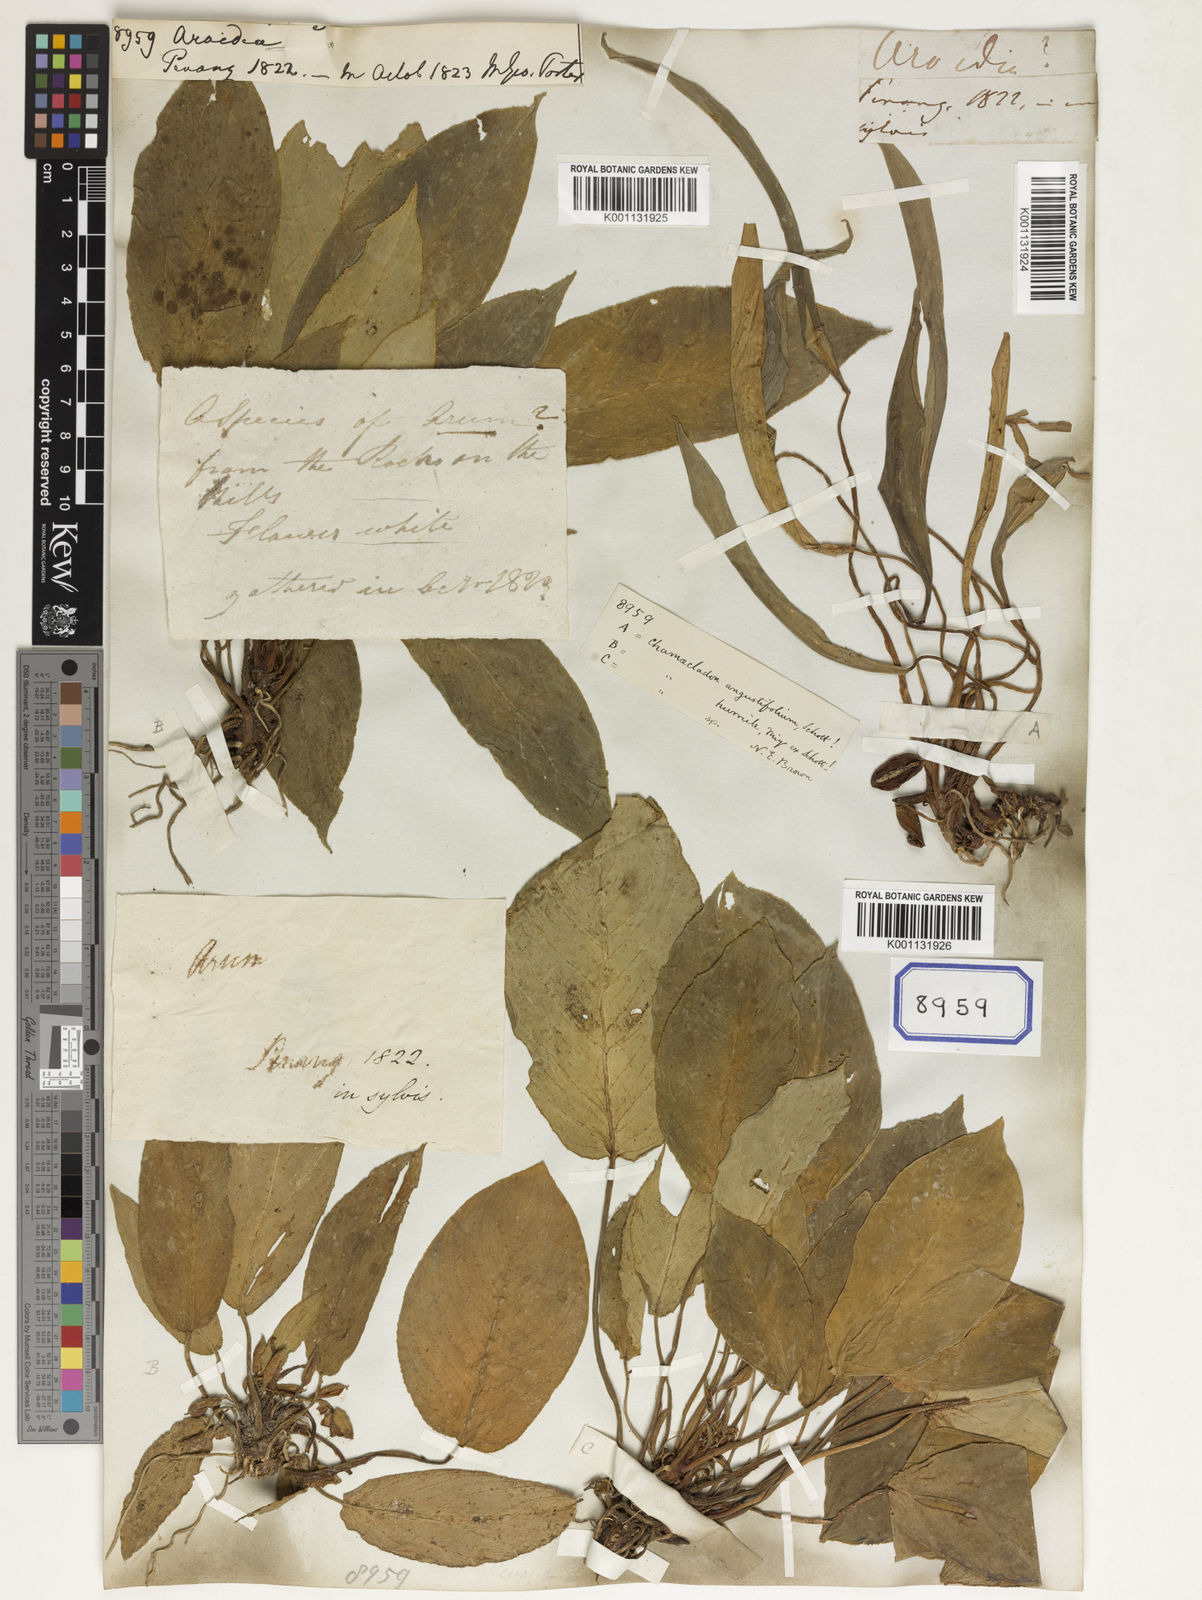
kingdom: Plantae
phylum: Tracheophyta
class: Liliopsida
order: Alismatales
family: Araceae
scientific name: Araceae
